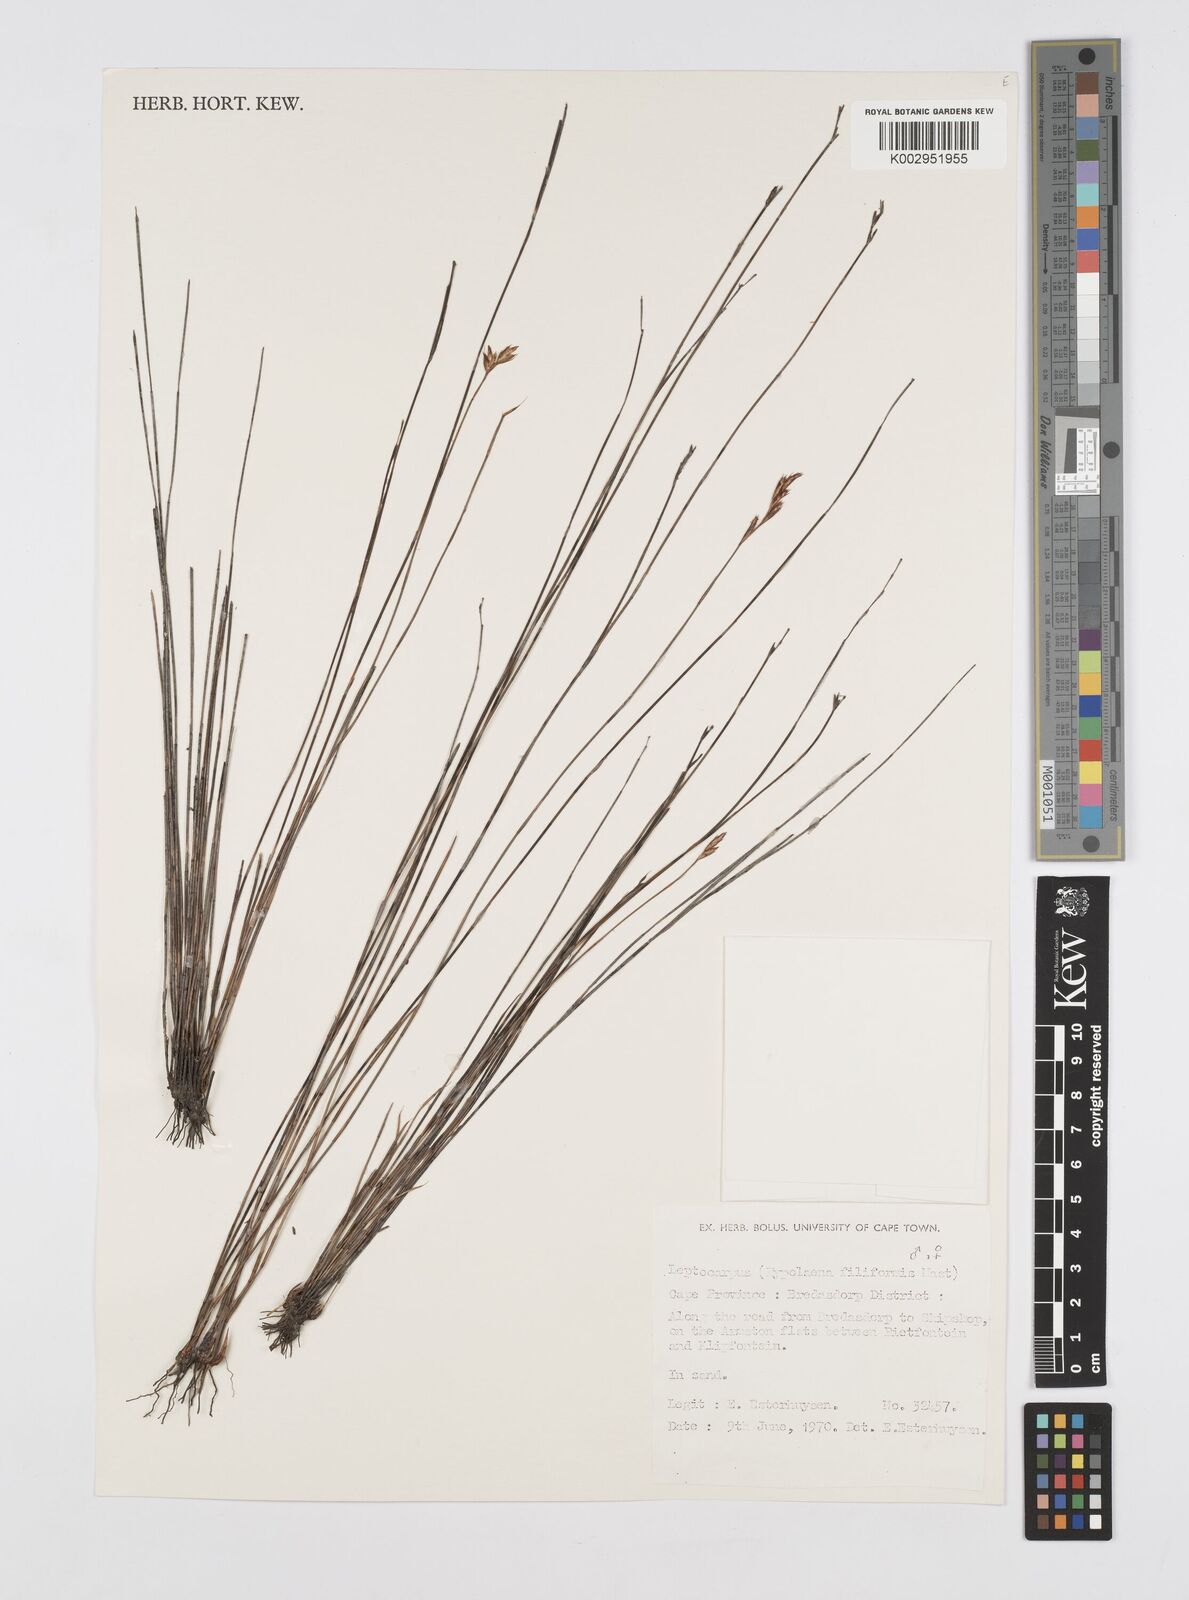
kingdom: Plantae
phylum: Tracheophyta
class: Liliopsida
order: Poales
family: Restionaceae
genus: Restio
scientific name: Restio filiformis
